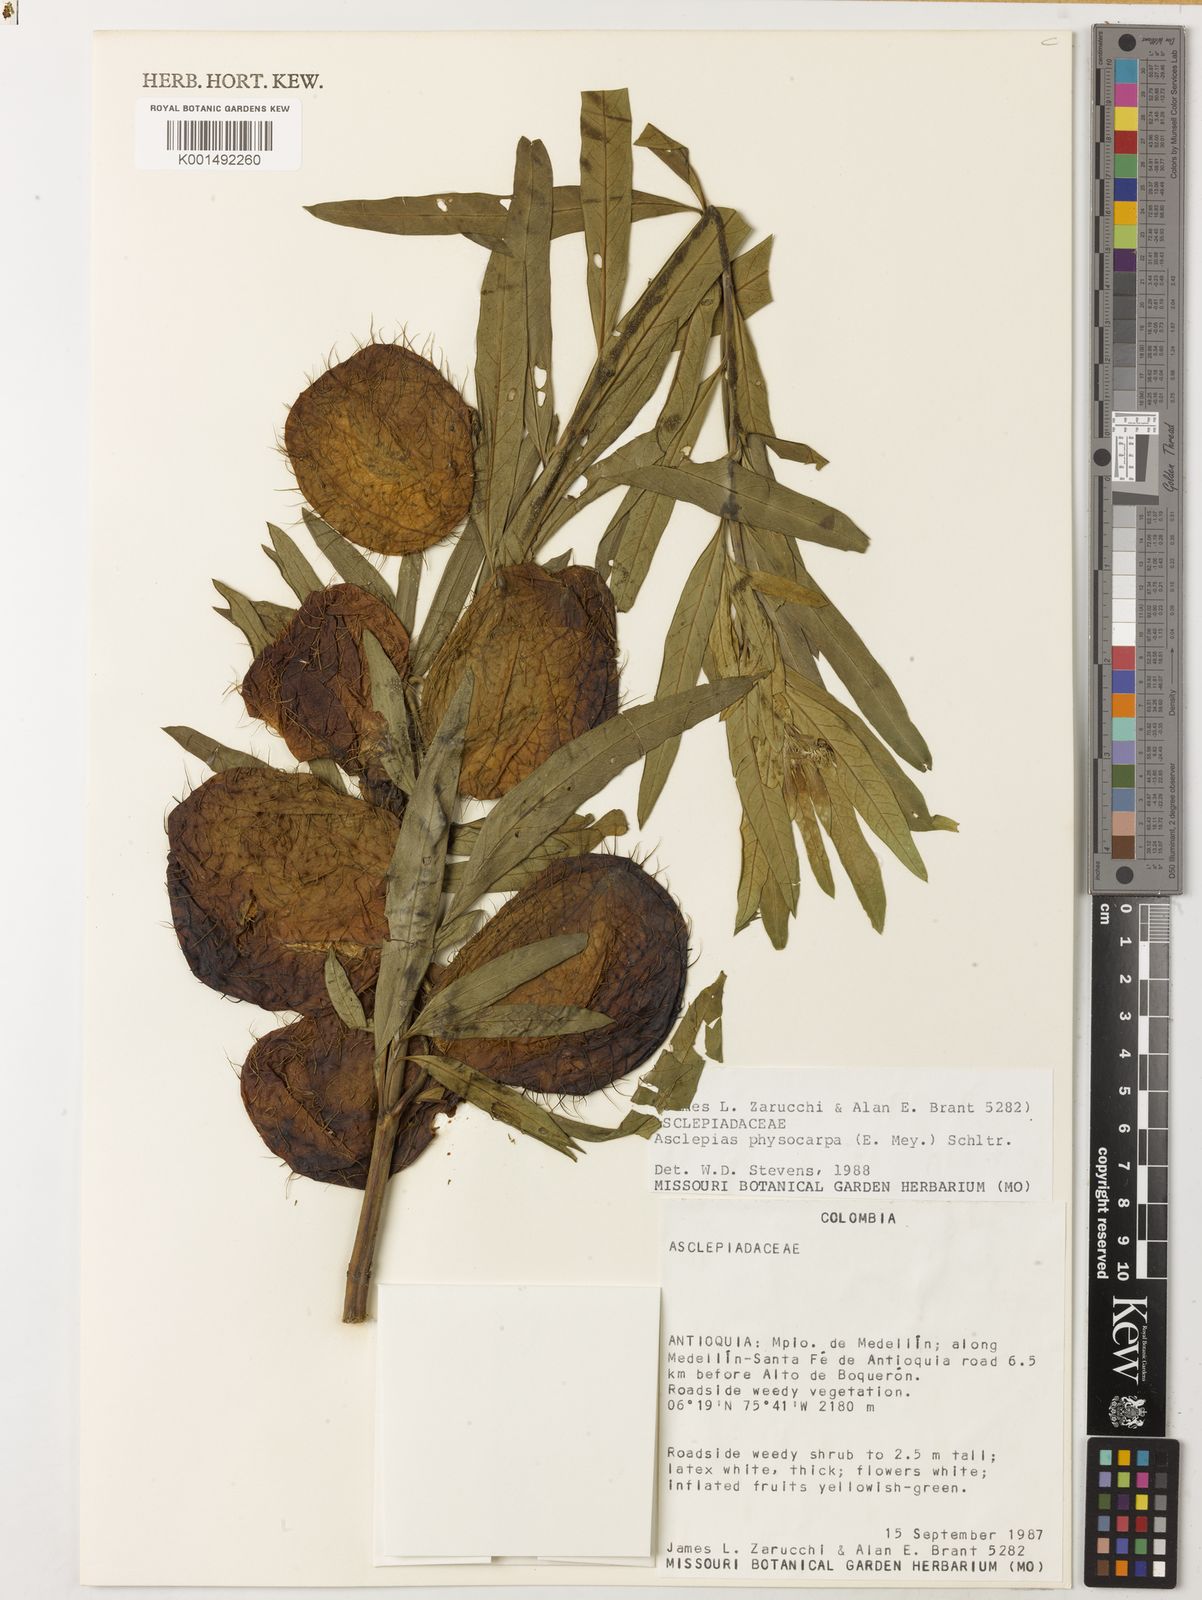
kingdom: Plantae
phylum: Tracheophyta
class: Magnoliopsida
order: Gentianales
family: Apocynaceae
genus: Gomphocarpus
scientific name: Gomphocarpus physocarpus
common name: Balloon cotton bush
